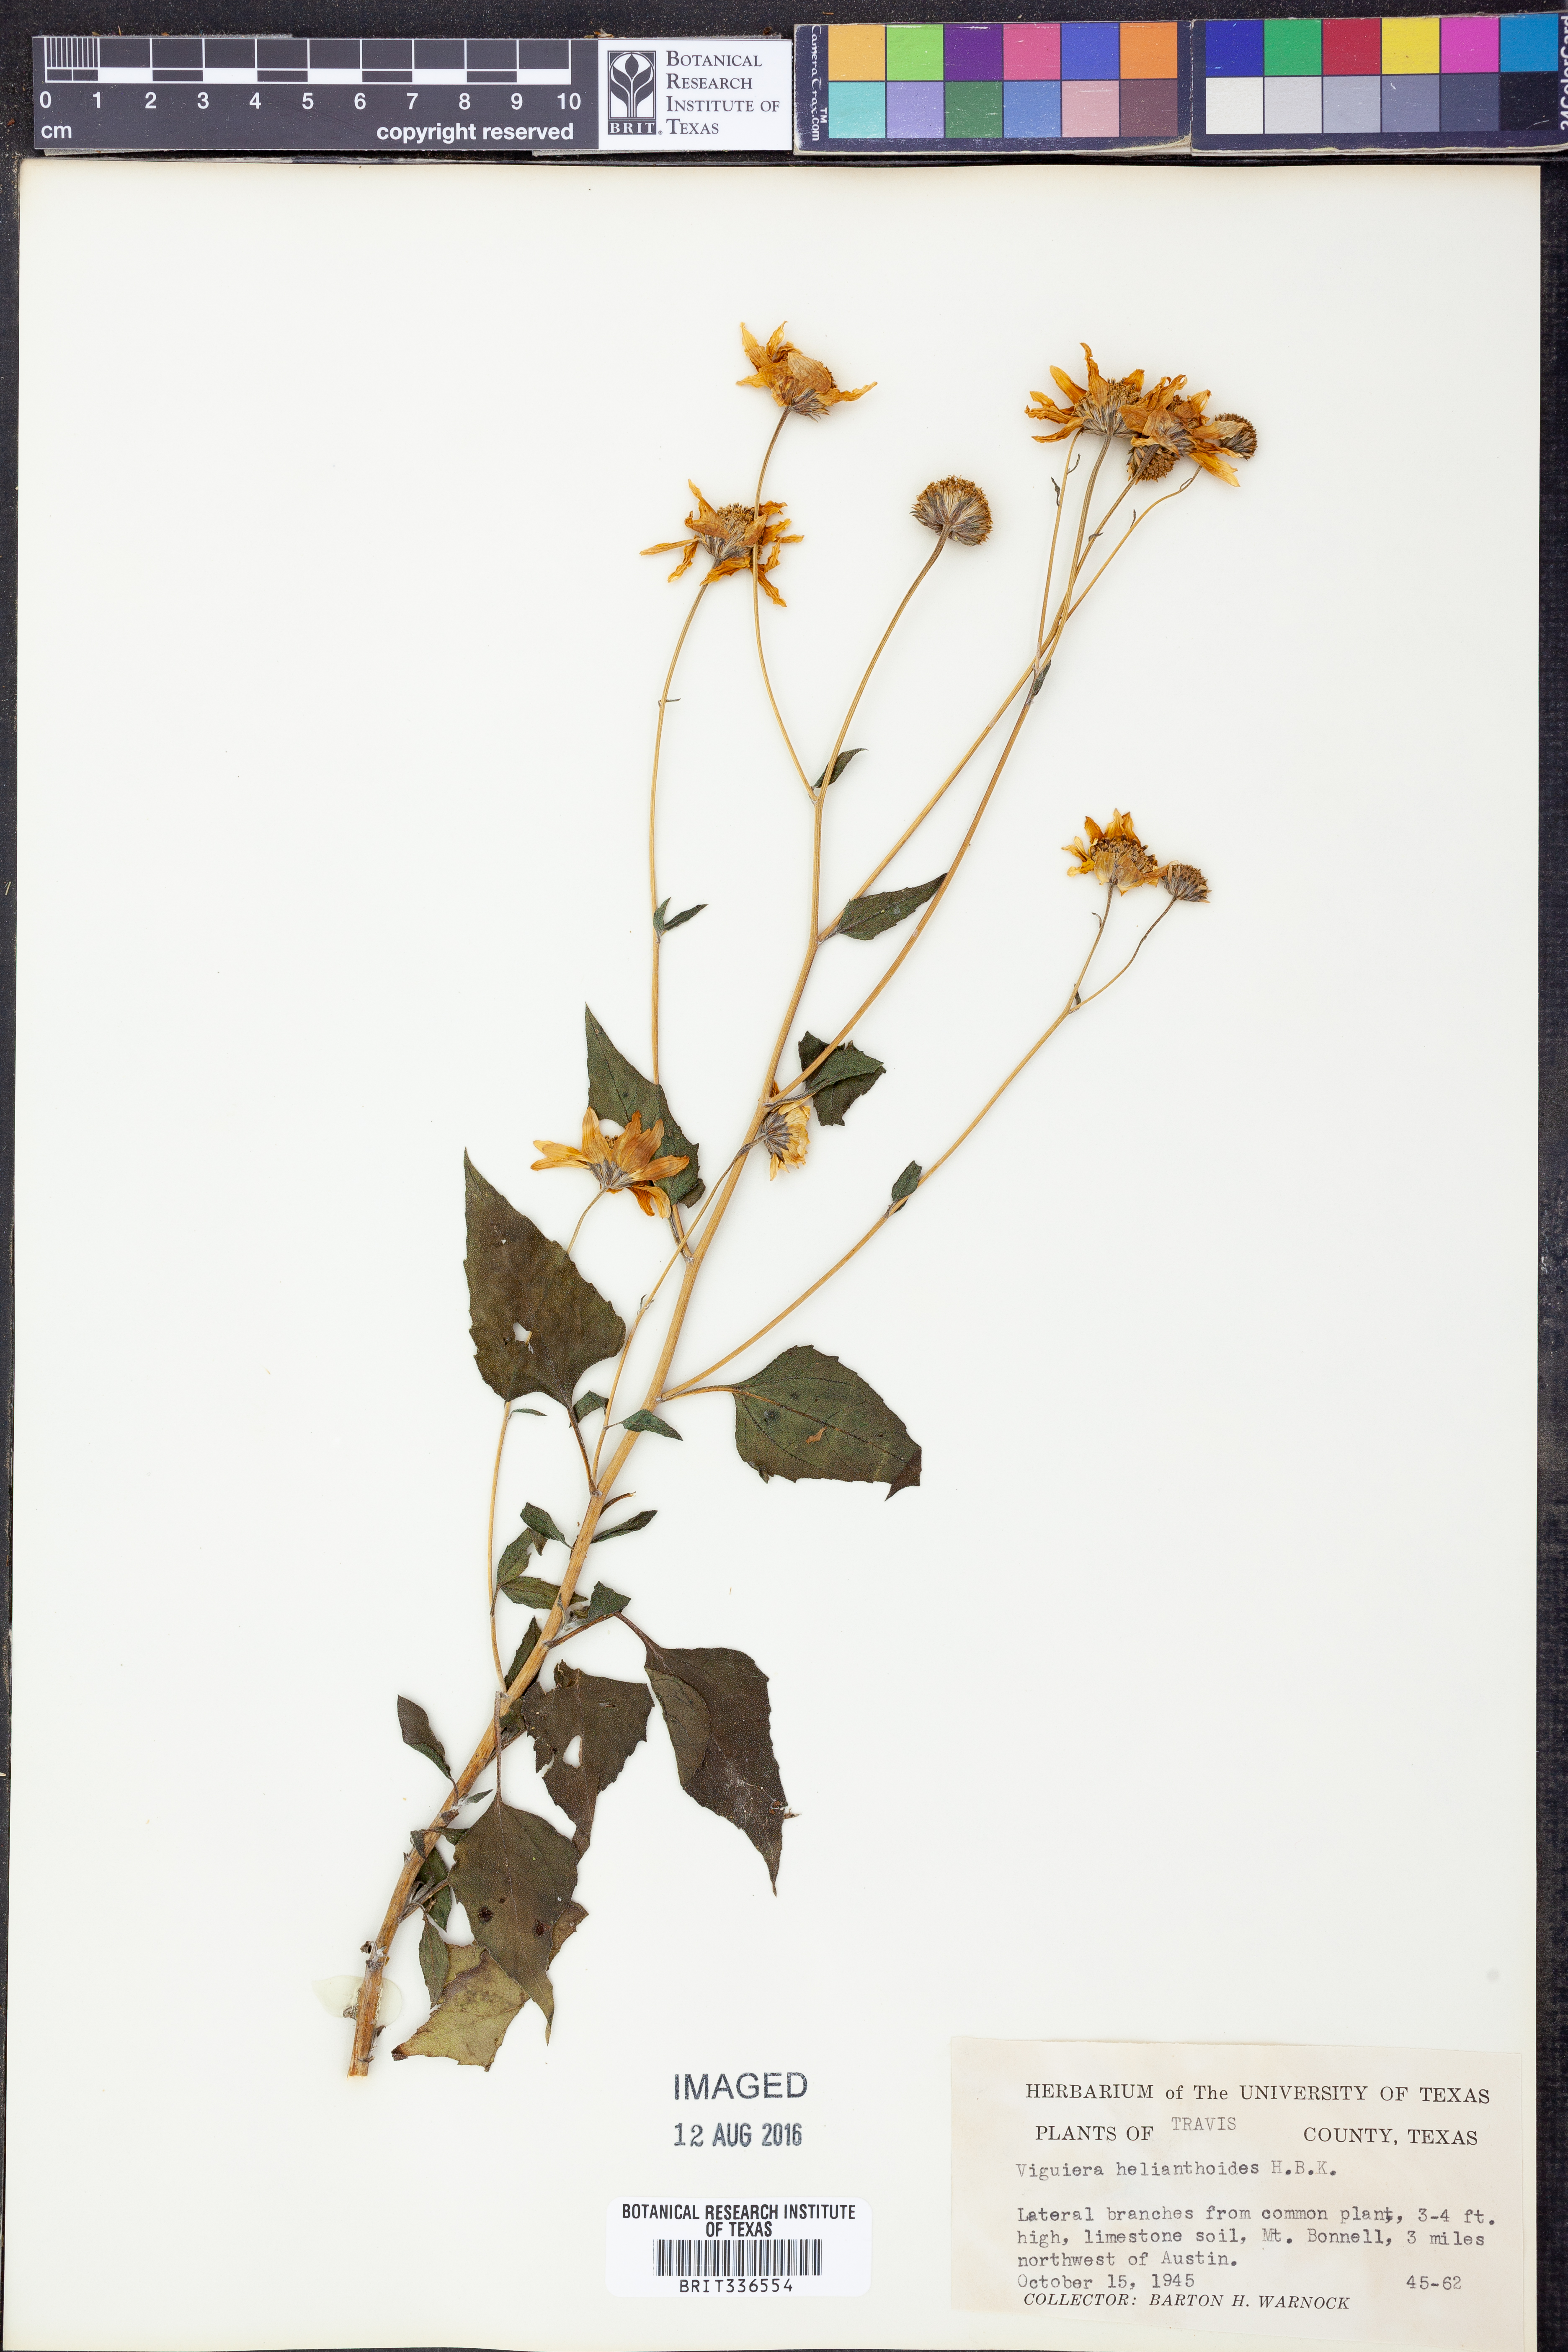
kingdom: Plantae
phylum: Tracheophyta
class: Magnoliopsida
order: Asterales
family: Asteraceae
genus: Viguiera
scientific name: Viguiera dentata
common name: Toothleaf
